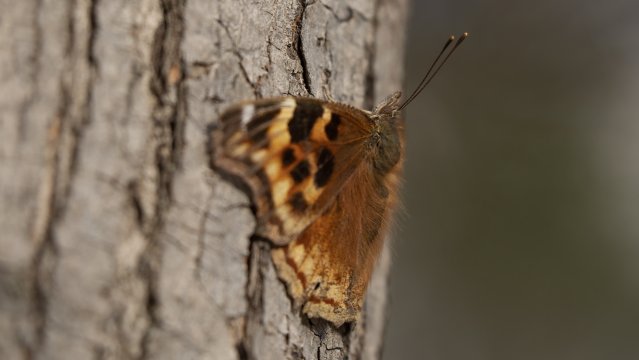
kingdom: Animalia
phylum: Arthropoda
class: Insecta
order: Lepidoptera
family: Nymphalidae
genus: Polygonia
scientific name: Polygonia vaualbum
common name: Compton Tortoiseshell
